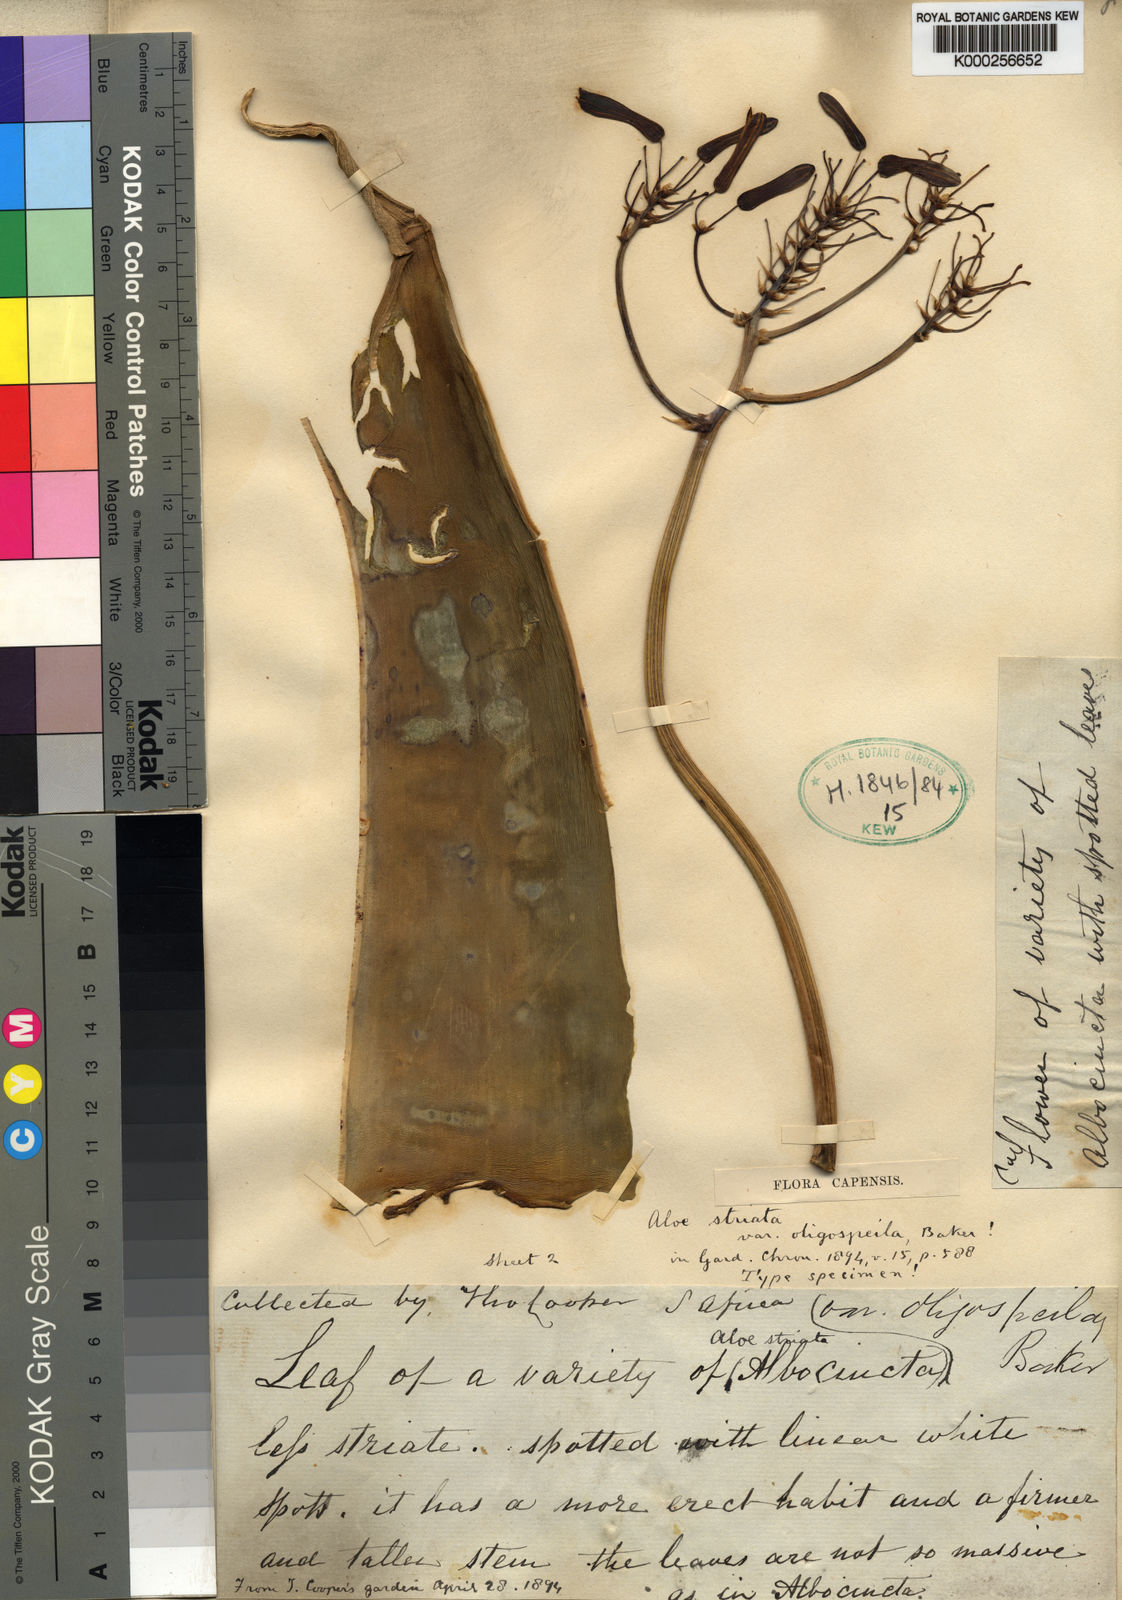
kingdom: Plantae
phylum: Tracheophyta
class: Liliopsida
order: Asparagales
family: Asphodelaceae
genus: Aloe
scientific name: Aloe striata
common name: Coral aloe
